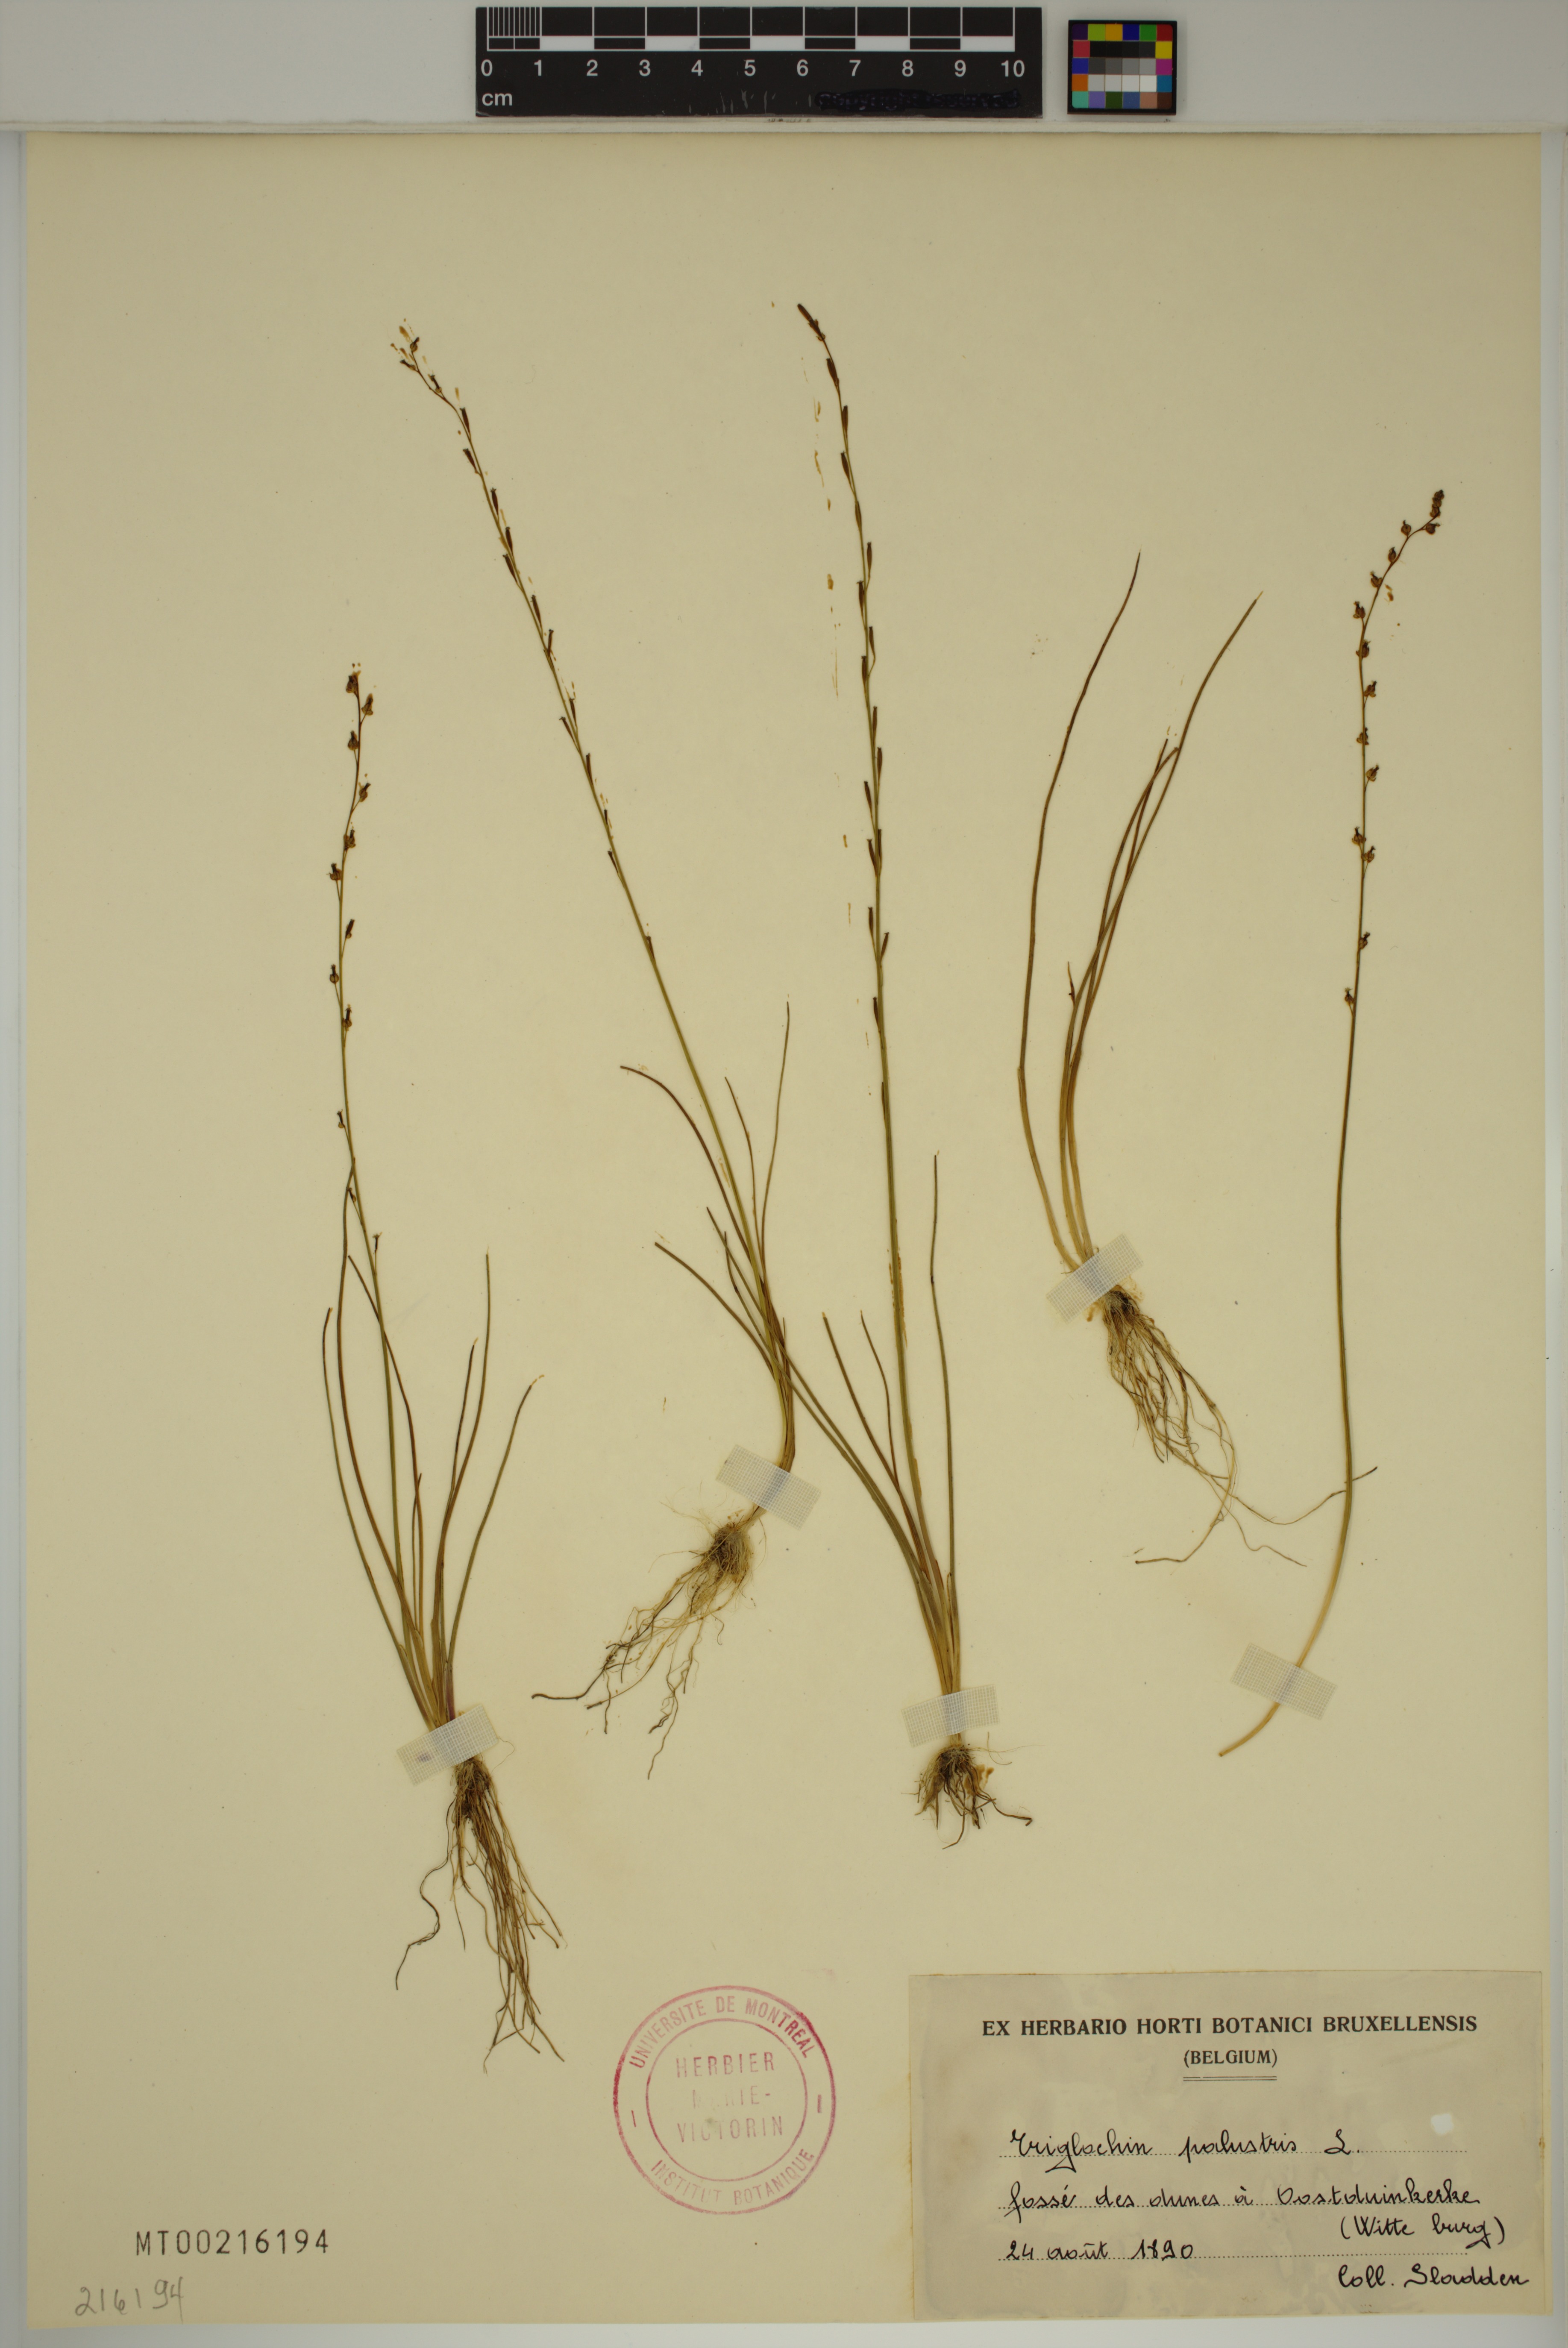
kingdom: Plantae
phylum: Tracheophyta
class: Liliopsida
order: Alismatales
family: Juncaginaceae
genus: Triglochin
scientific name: Triglochin palustris
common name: Marsh arrowgrass
